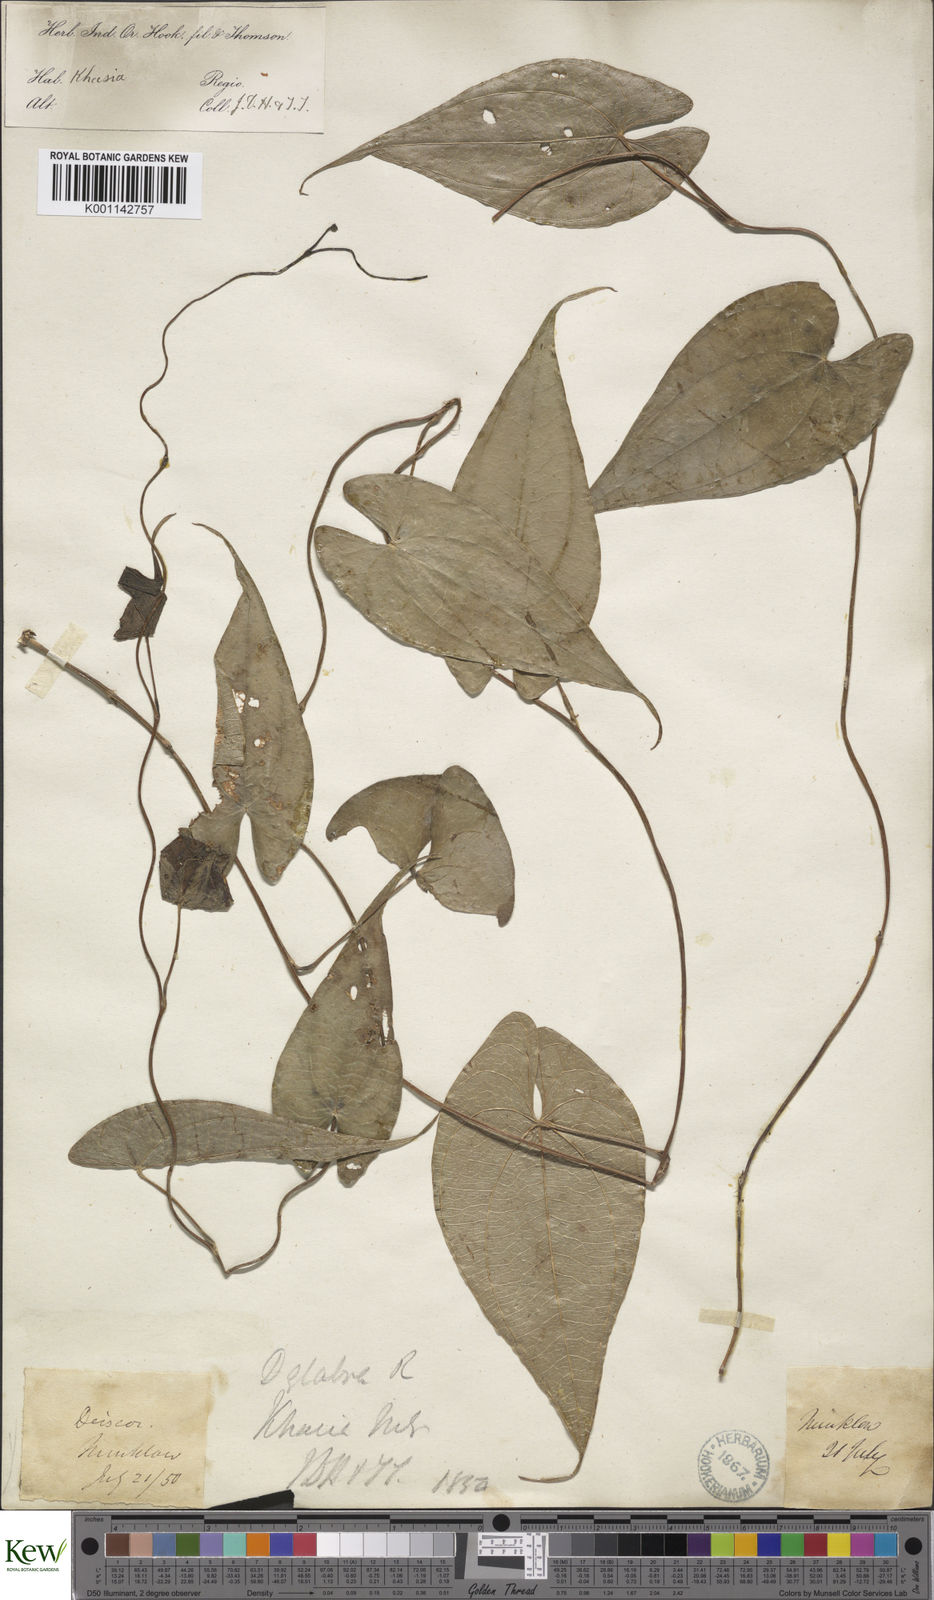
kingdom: Plantae
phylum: Tracheophyta
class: Liliopsida
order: Dioscoreales
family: Dioscoreaceae
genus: Dioscorea
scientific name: Dioscorea belophylla
